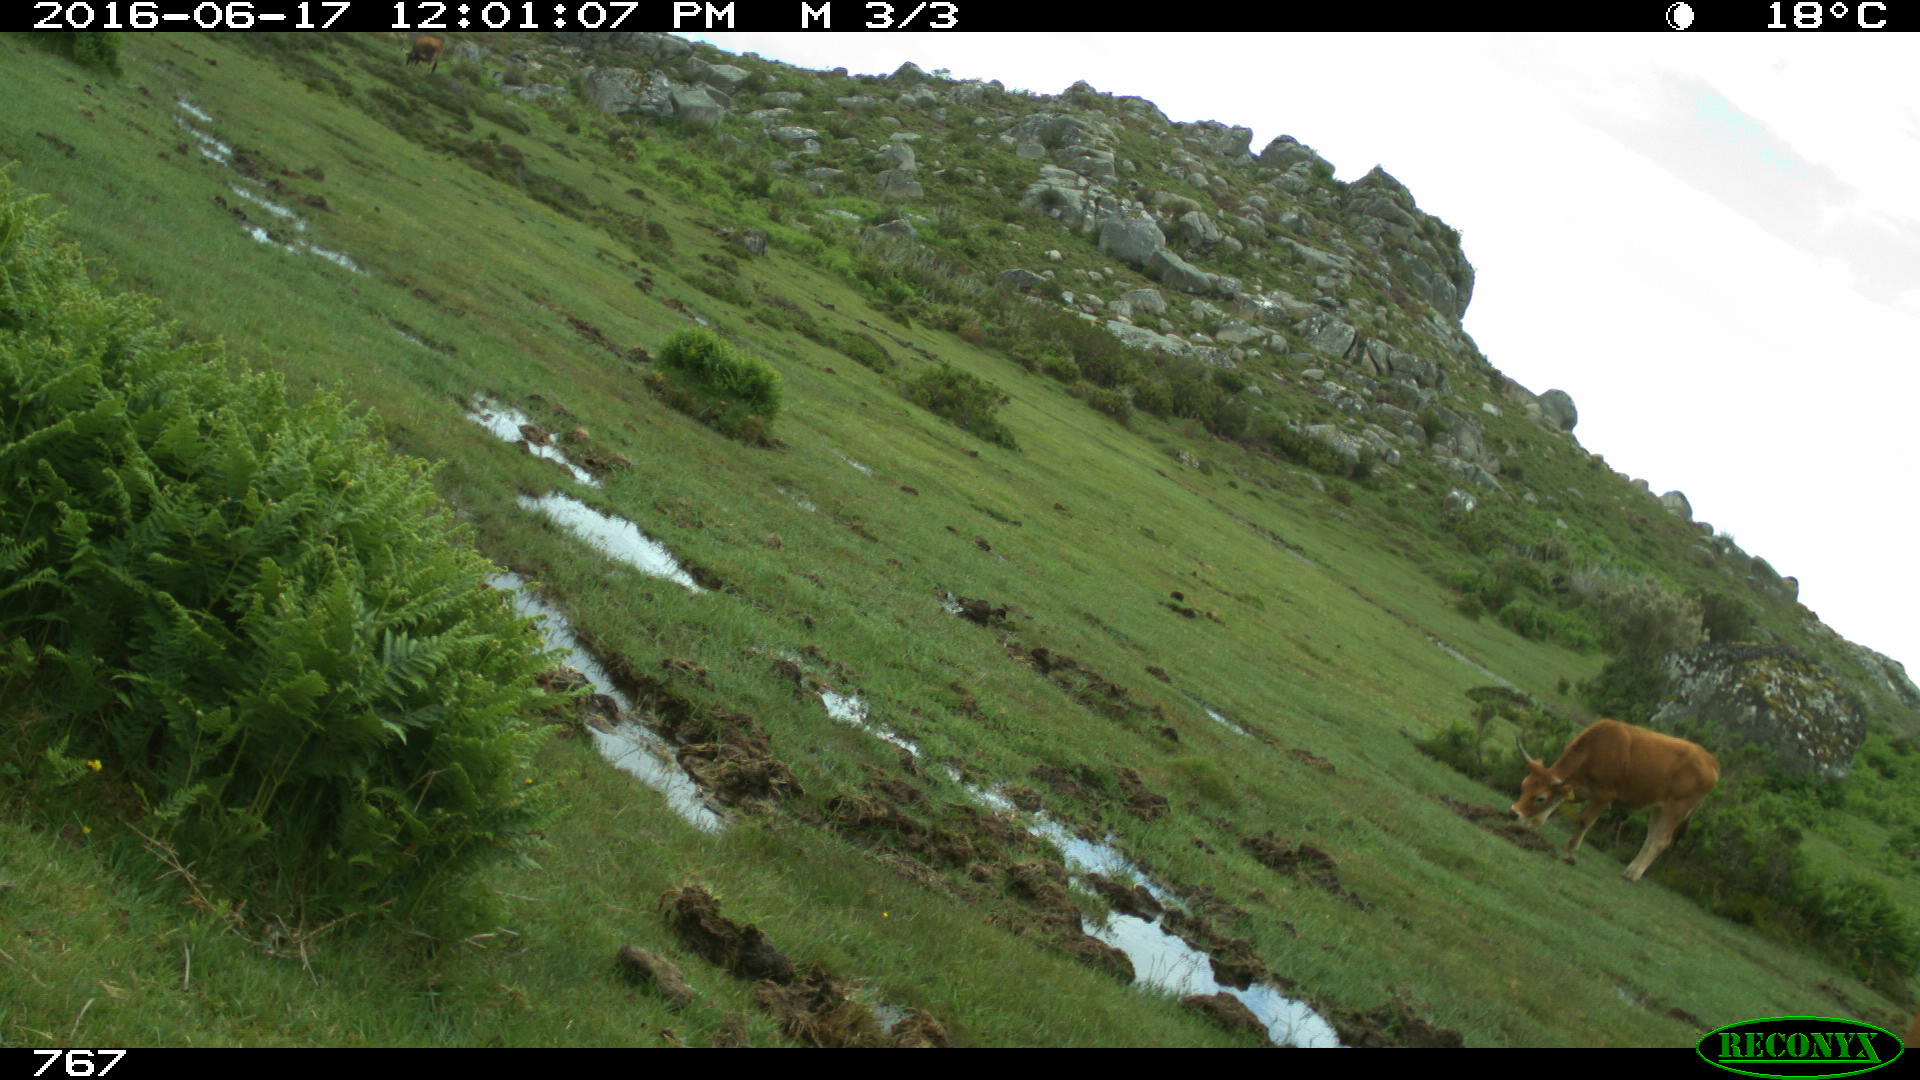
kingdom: Animalia
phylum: Chordata
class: Mammalia
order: Artiodactyla
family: Bovidae
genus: Bos
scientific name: Bos taurus
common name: Domesticated cattle
